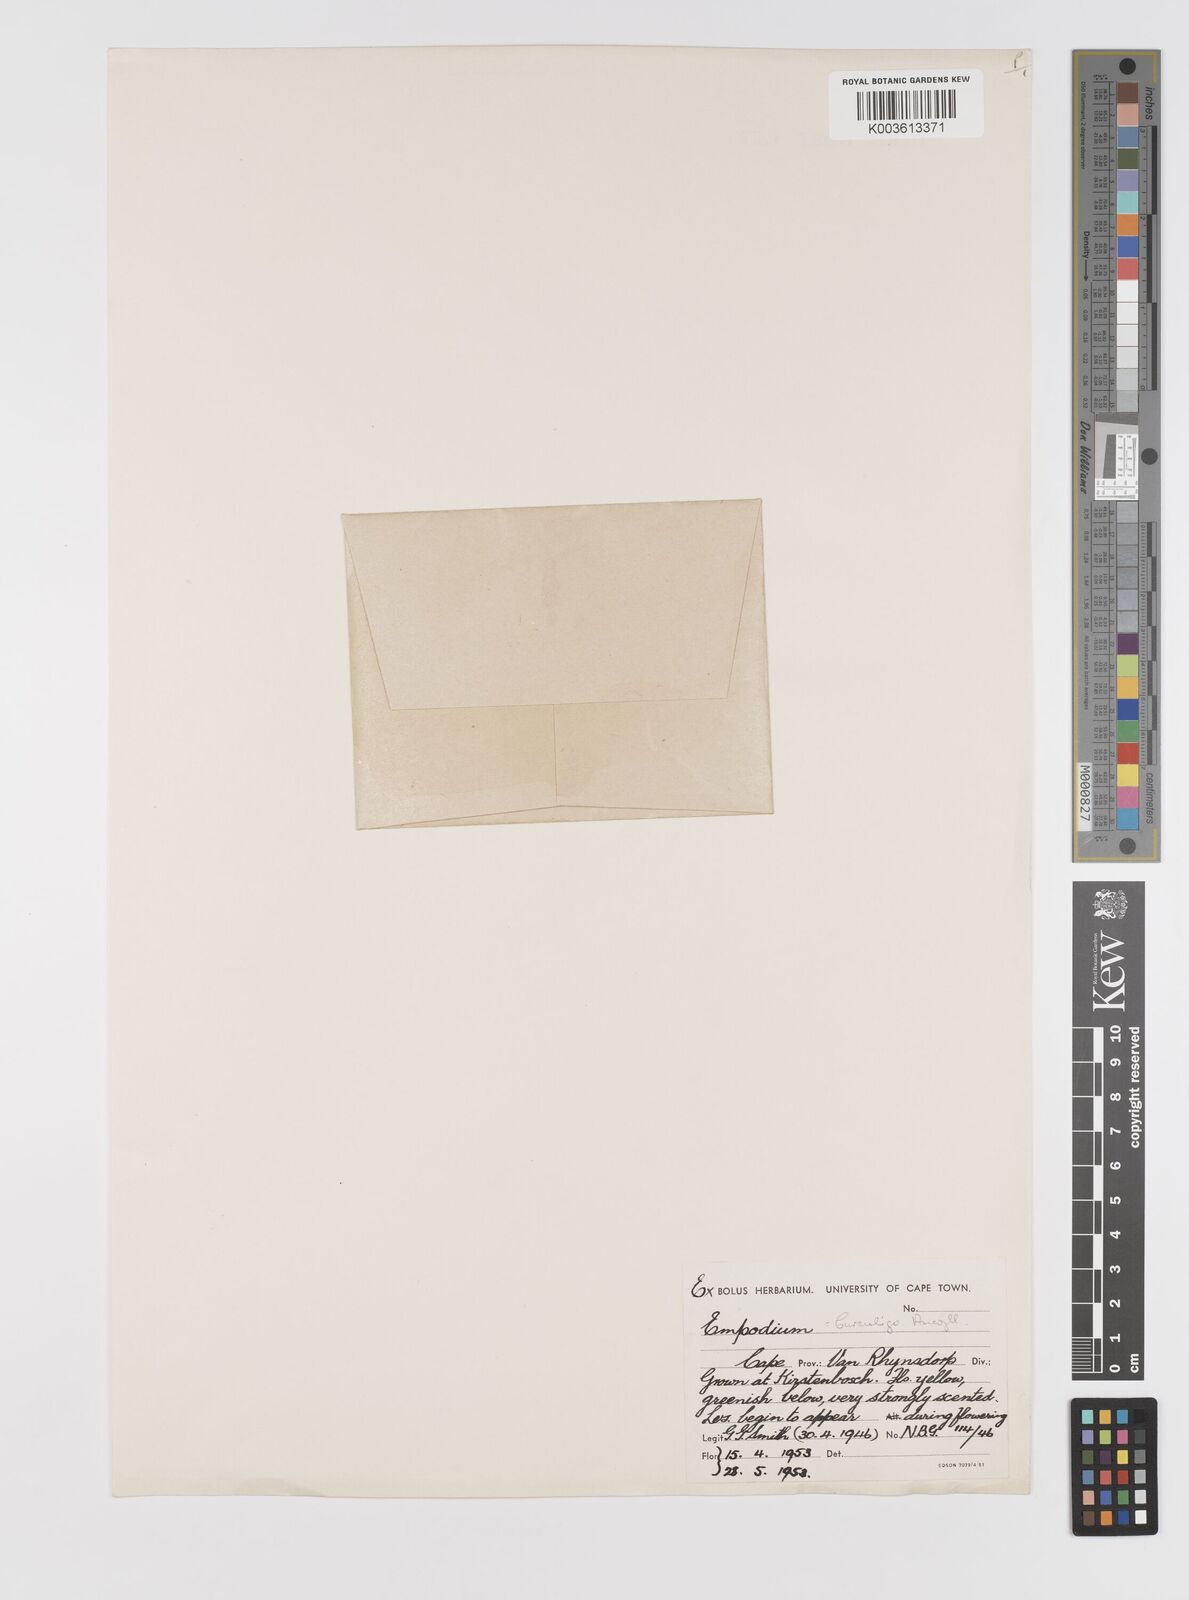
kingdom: Plantae
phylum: Tracheophyta
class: Liliopsida
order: Asparagales
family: Hypoxidaceae
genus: Empodium
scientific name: Empodium
